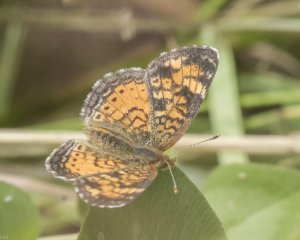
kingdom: Animalia
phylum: Arthropoda
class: Insecta
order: Lepidoptera
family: Nymphalidae
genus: Phyciodes
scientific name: Phyciodes tharos
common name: Northern Crescent
